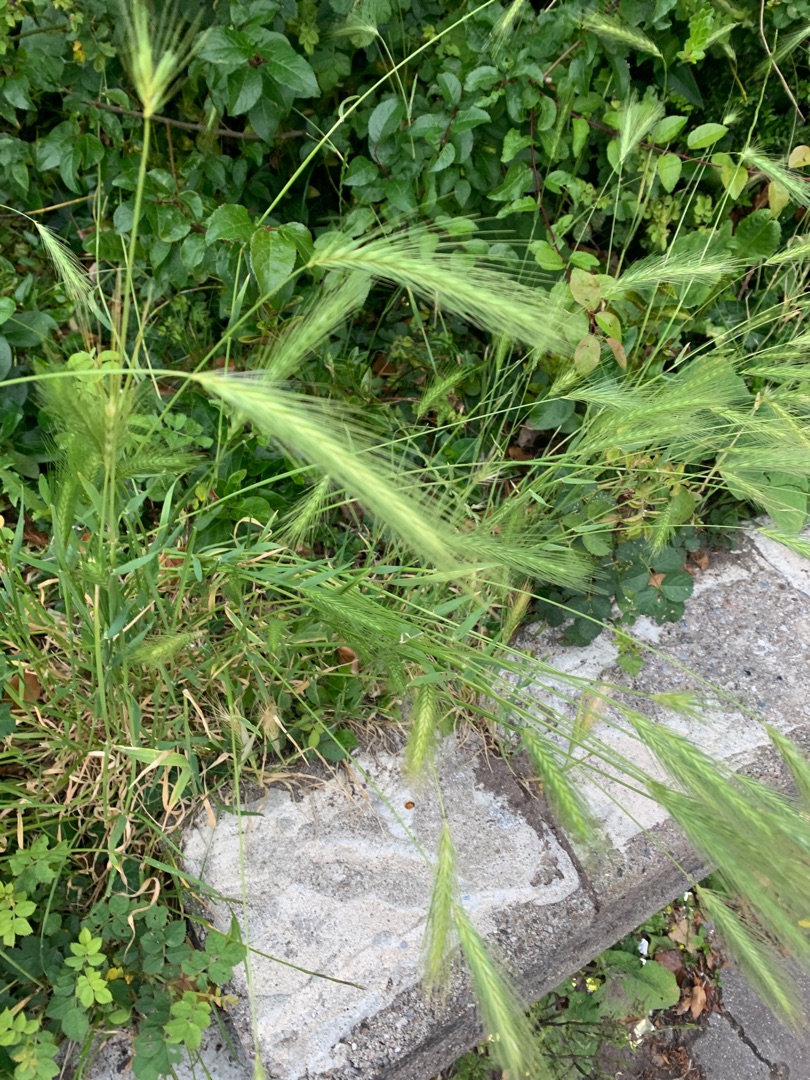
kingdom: Plantae
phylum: Tracheophyta
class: Liliopsida
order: Poales
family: Poaceae
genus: Bromus
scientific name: Bromus sterilis
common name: Gold hejre
